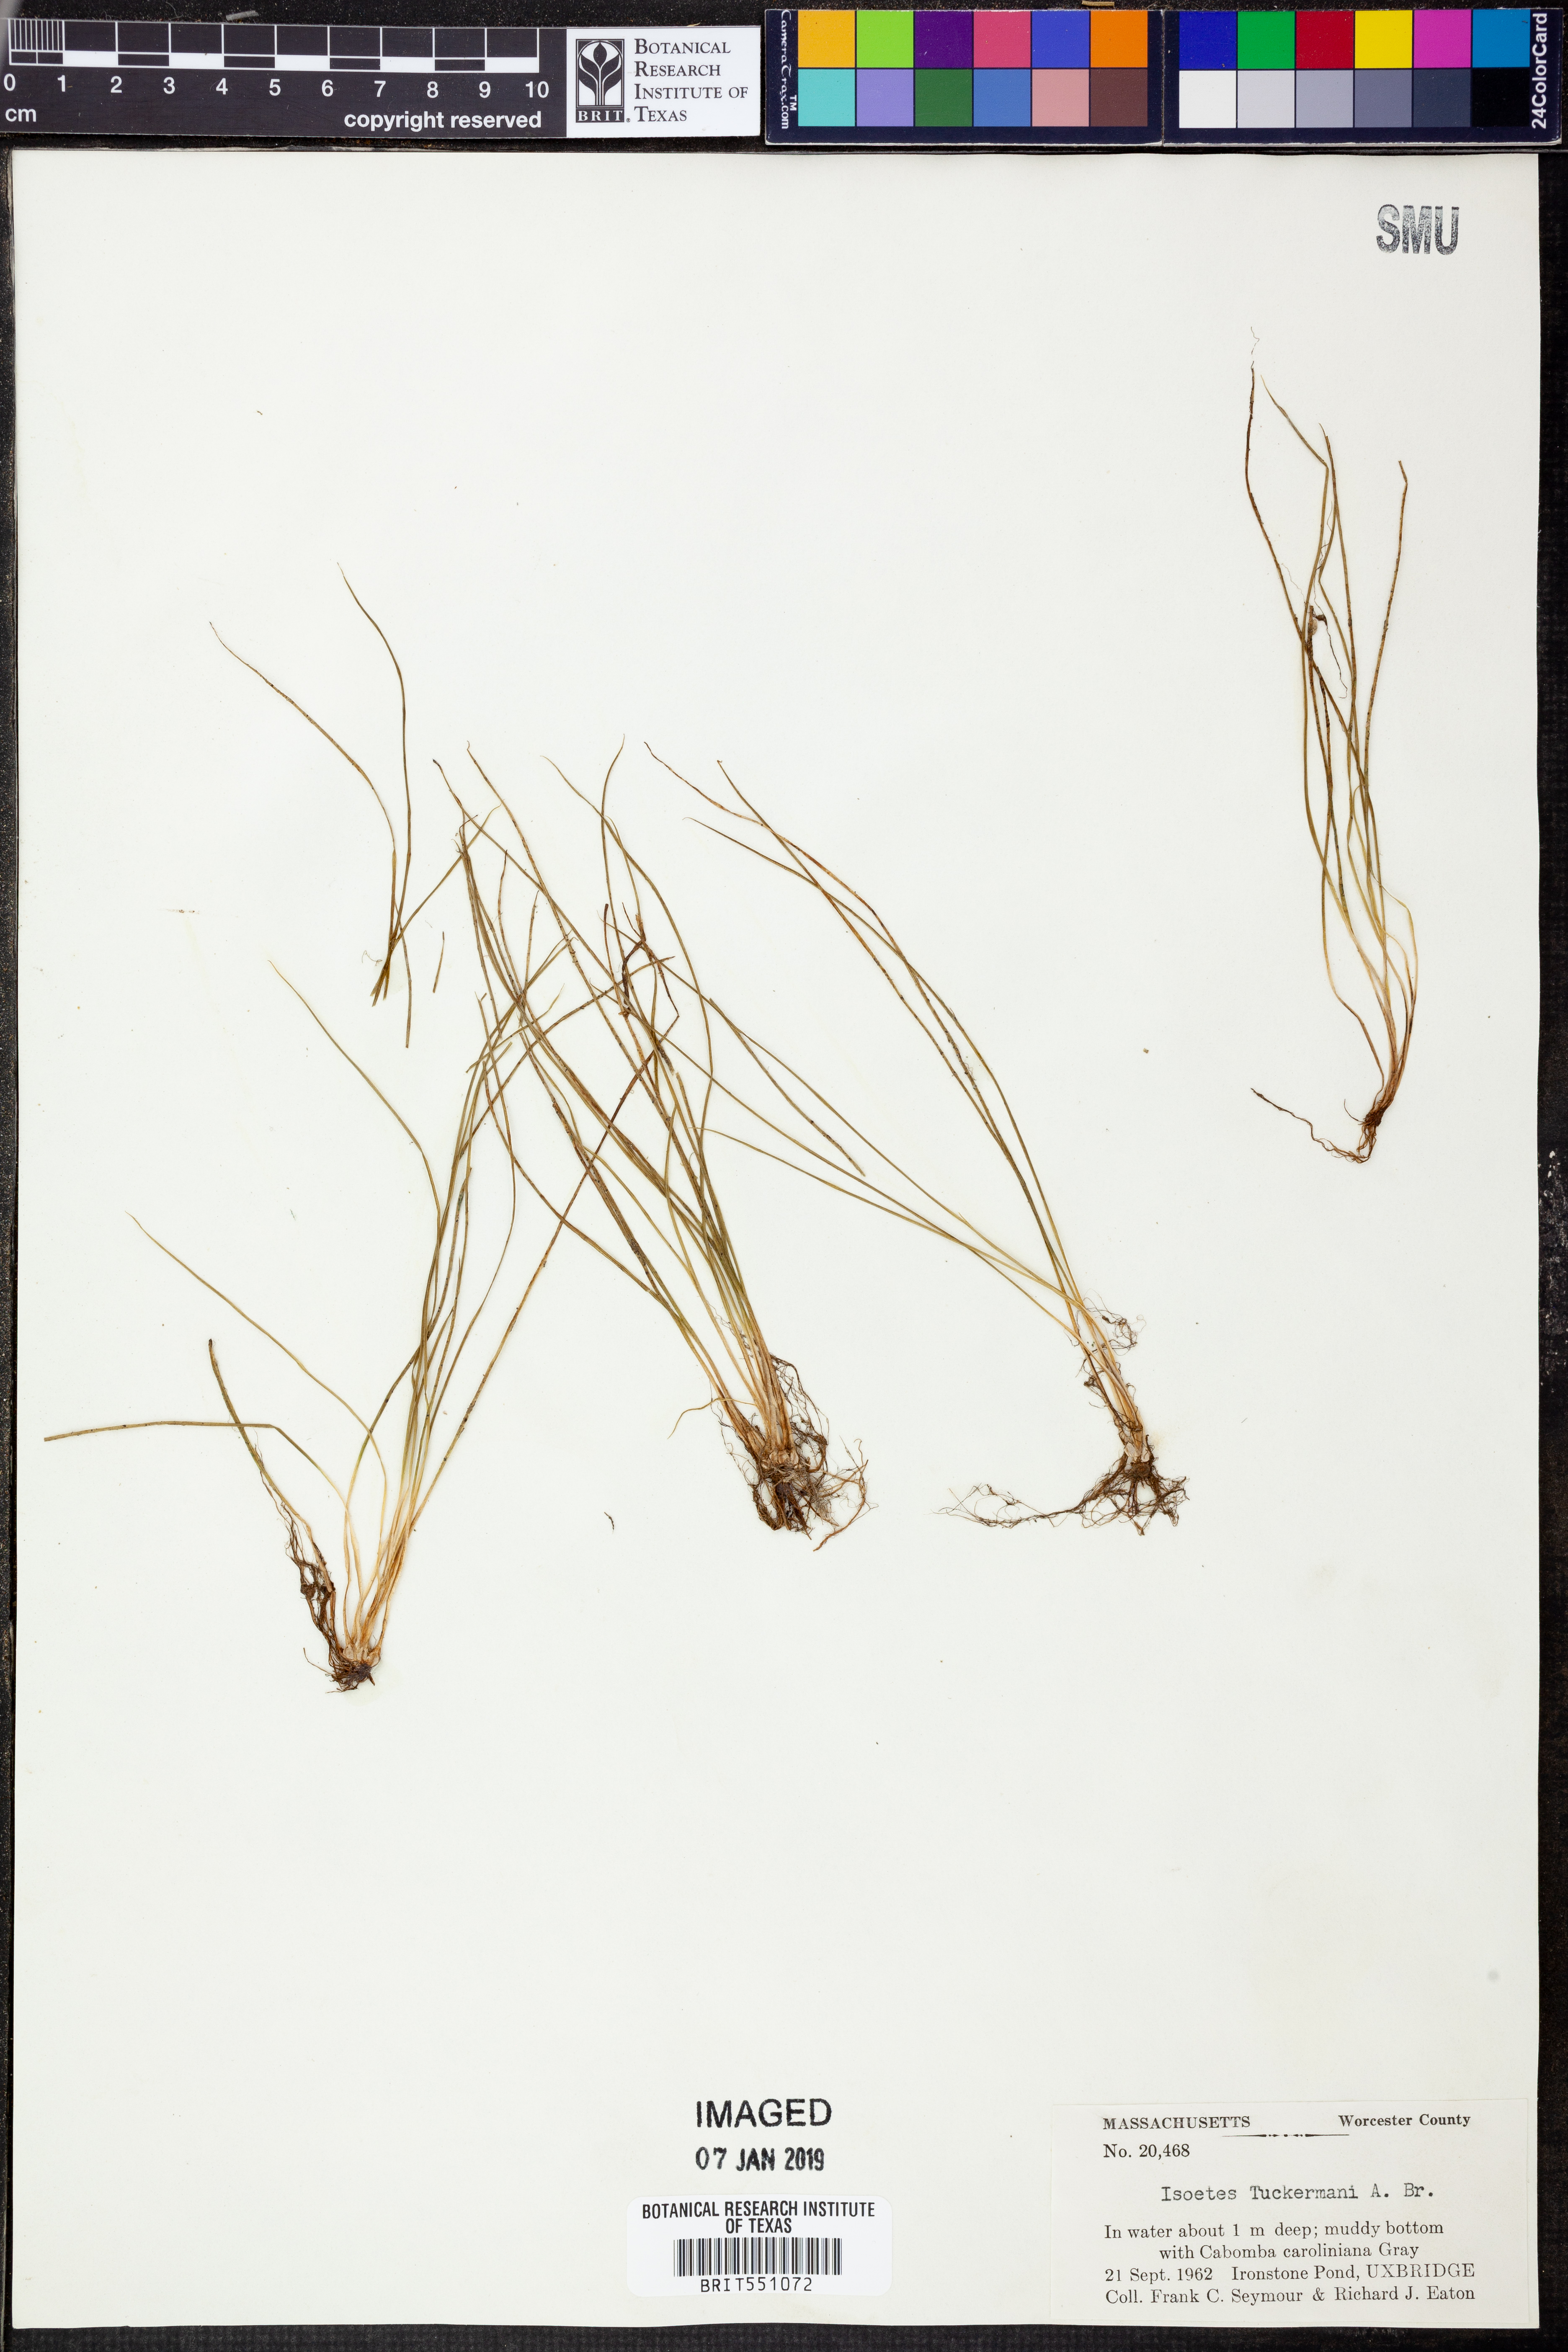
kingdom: Plantae
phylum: Tracheophyta
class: Lycopodiopsida
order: Isoetales
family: Isoetaceae
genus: Isoetes
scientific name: Isoetes tuckermanii
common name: Tuckerman's quillwort
